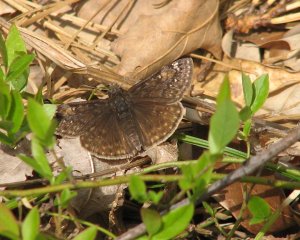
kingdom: Animalia
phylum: Arthropoda
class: Insecta
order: Lepidoptera
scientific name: Lepidoptera
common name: Butterflies
